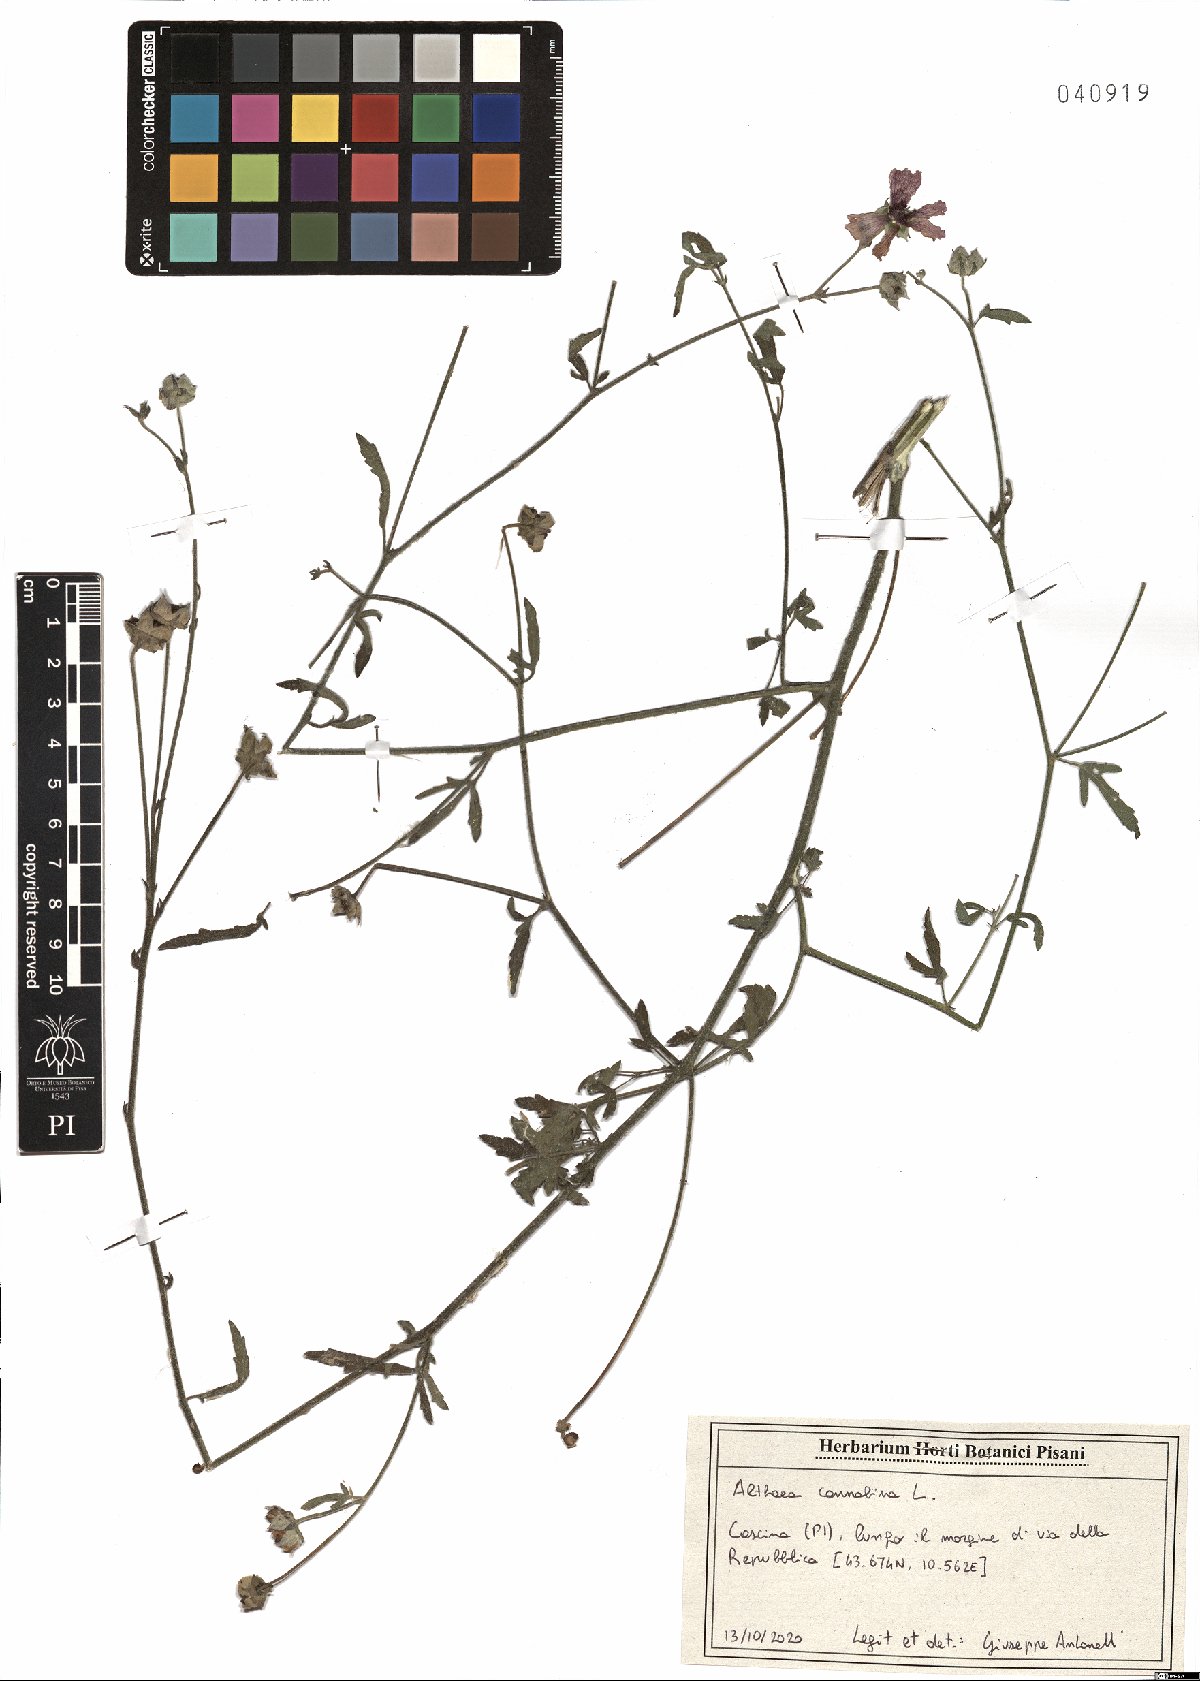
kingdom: Plantae
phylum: Tracheophyta
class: Magnoliopsida
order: Malvales
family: Malvaceae
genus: Althaea
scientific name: Althaea cannabina
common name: Palm-leaf marshmallow
